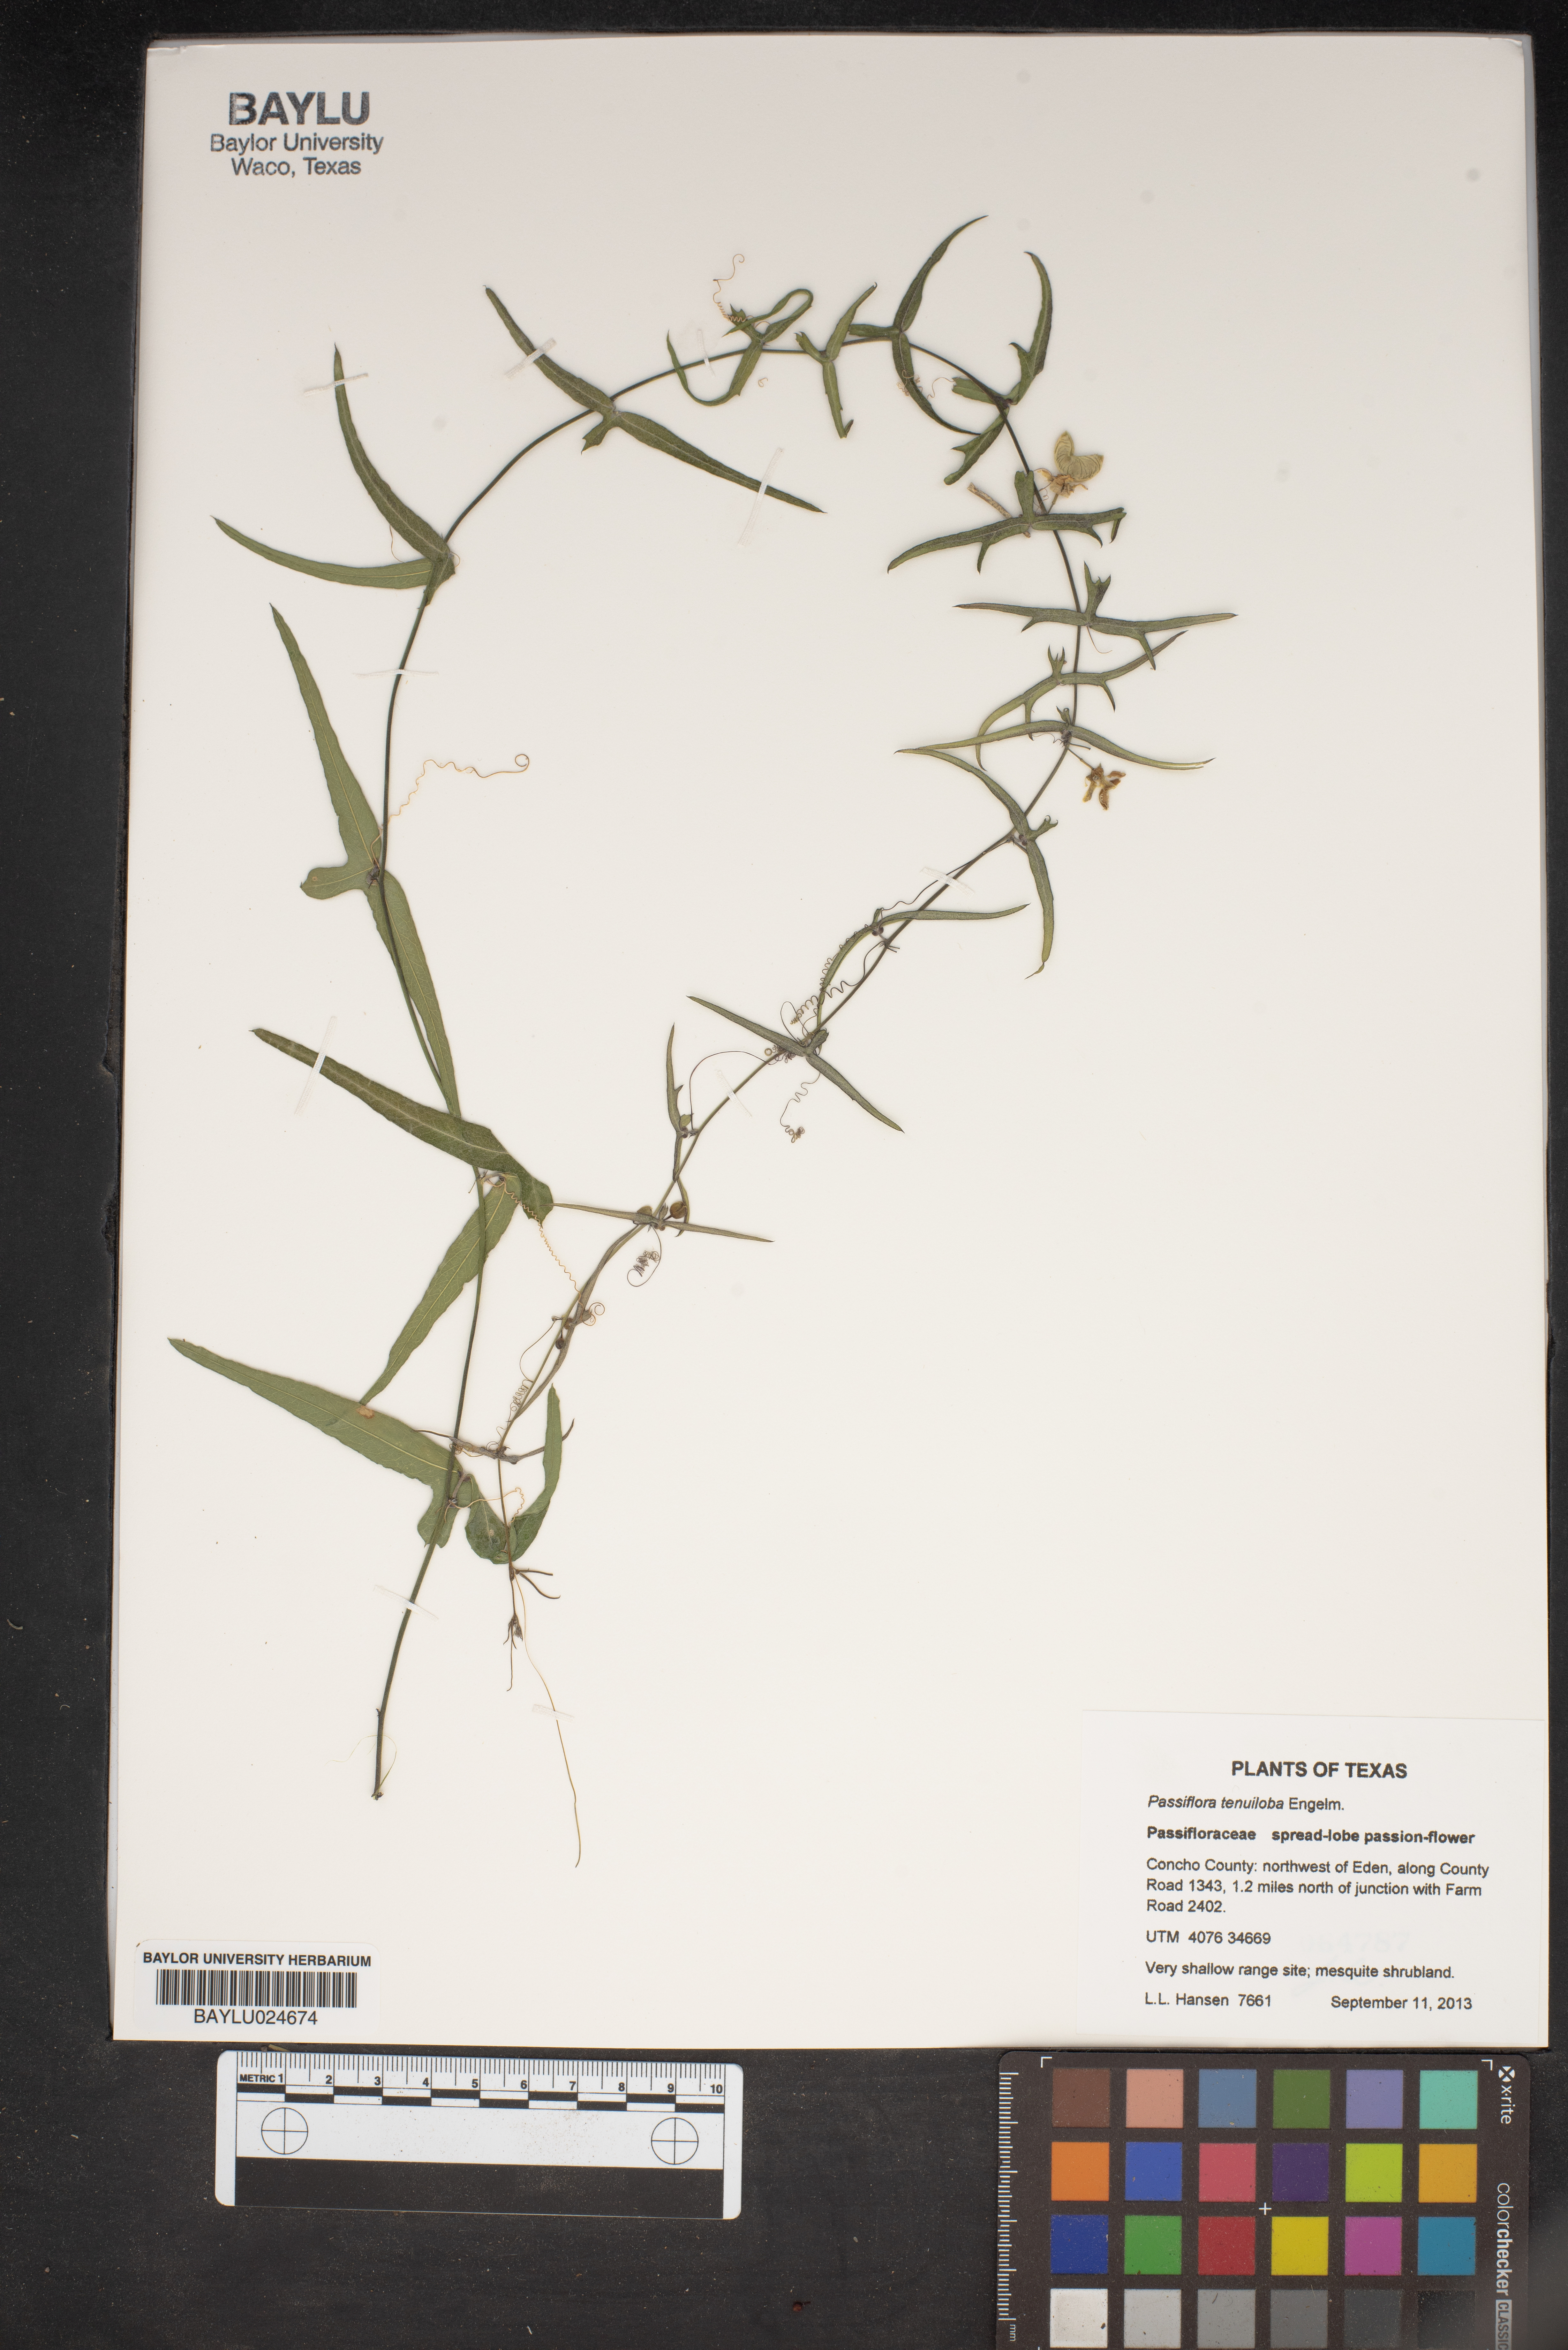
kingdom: Plantae
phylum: Tracheophyta
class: Magnoliopsida
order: Malpighiales
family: Passifloraceae
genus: Passiflora
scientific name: Passiflora tenuiloba
